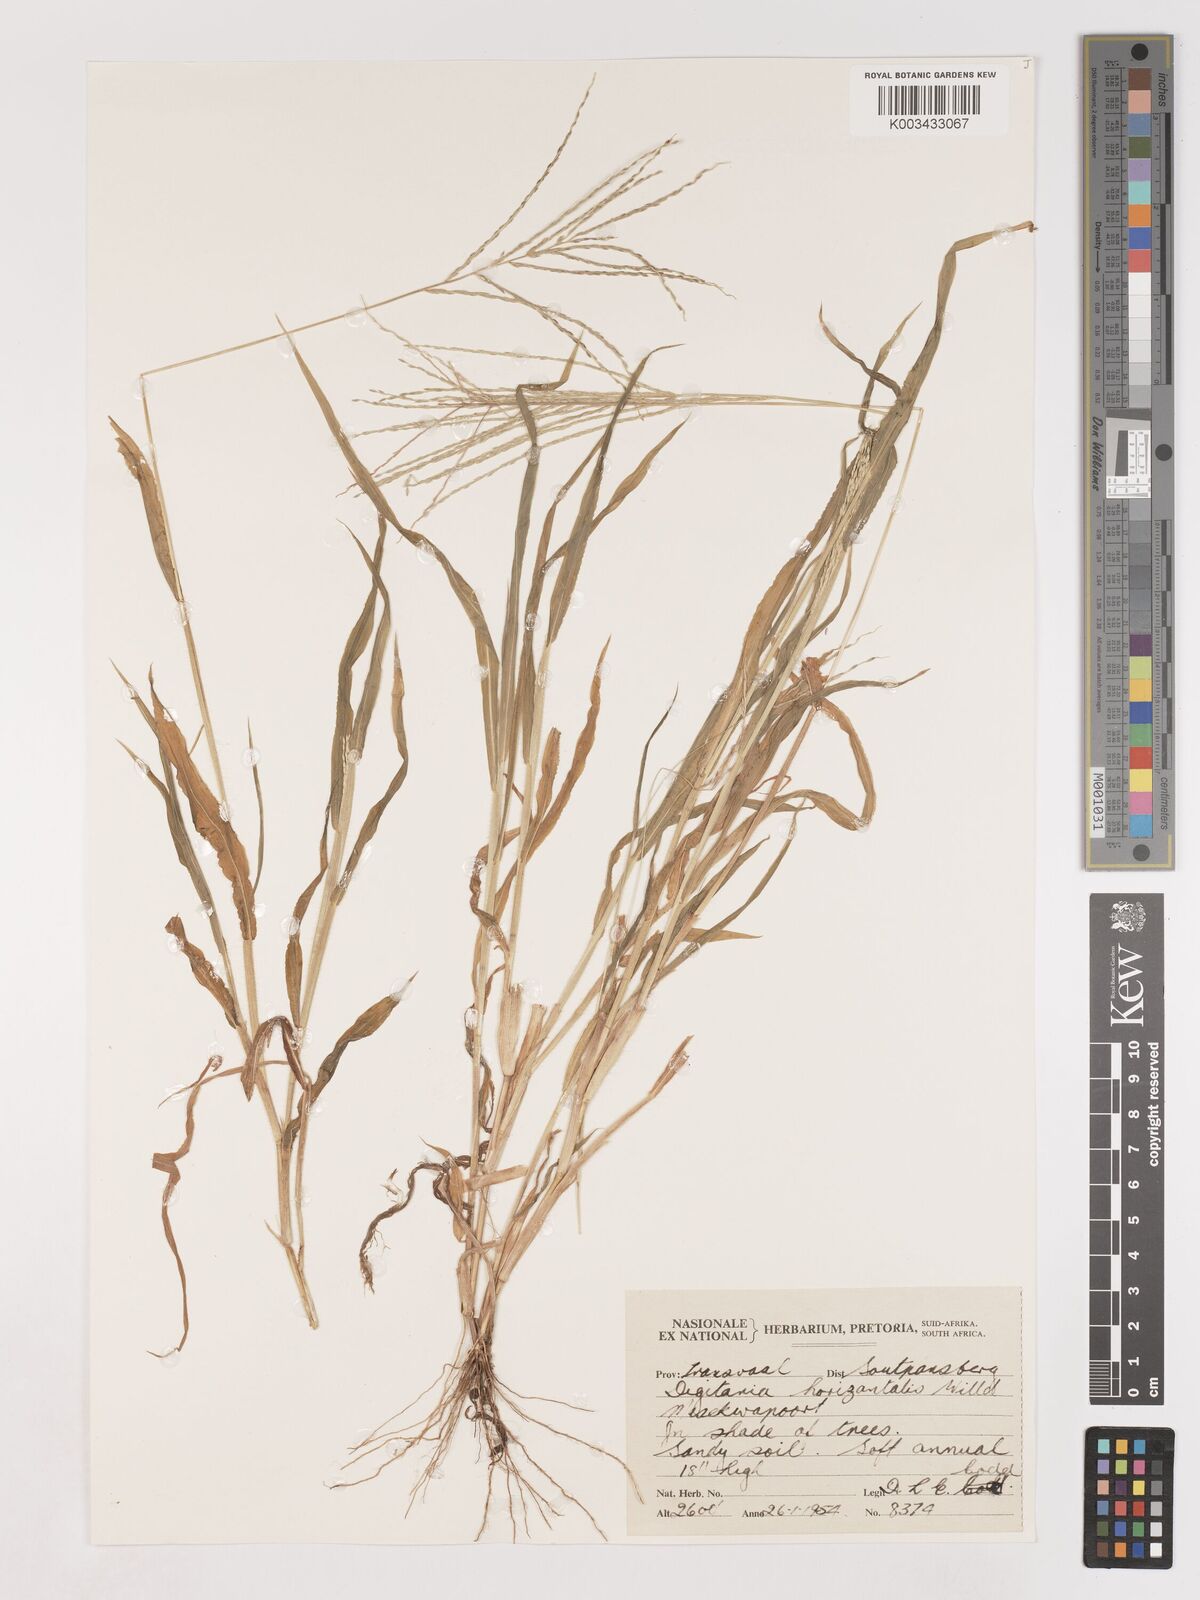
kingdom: Plantae
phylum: Tracheophyta
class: Liliopsida
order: Poales
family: Poaceae
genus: Digitaria
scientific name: Digitaria velutina
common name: Long-plume finger grass
